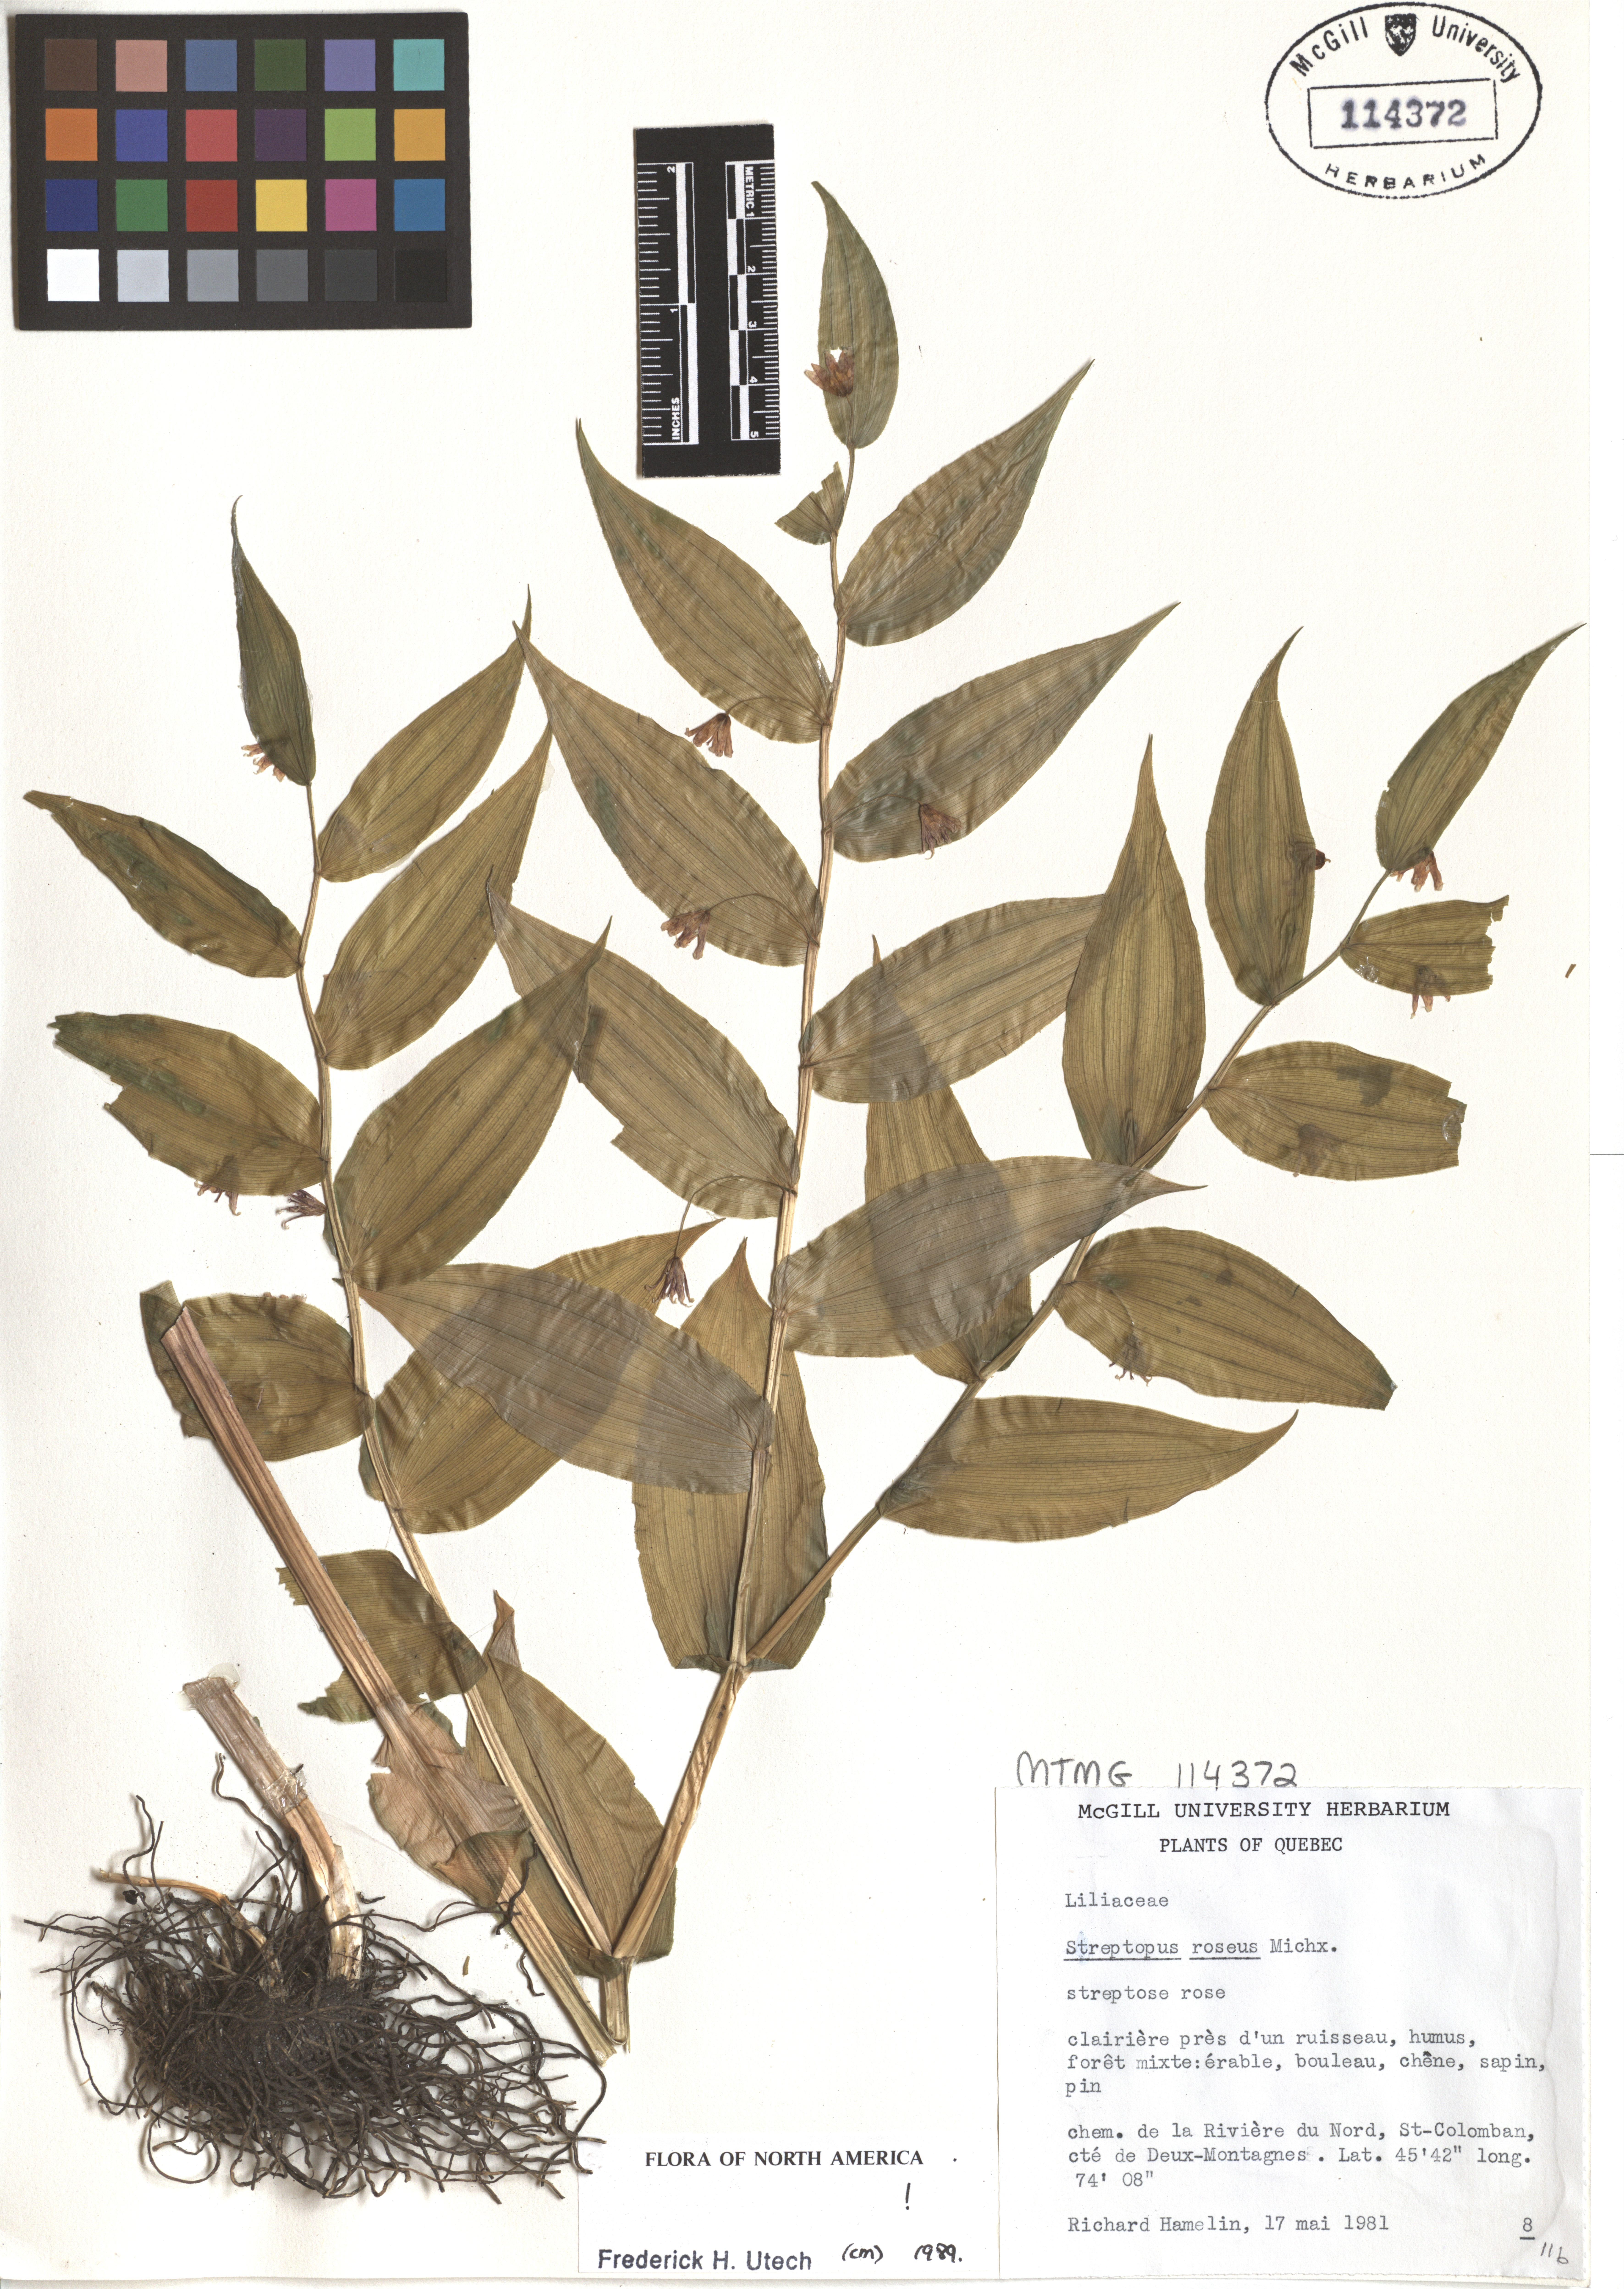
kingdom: Plantae
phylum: Tracheophyta
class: Liliopsida
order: Liliales
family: Liliaceae
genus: Streptopus
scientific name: Streptopus lanceolatus
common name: Rose mandarin
